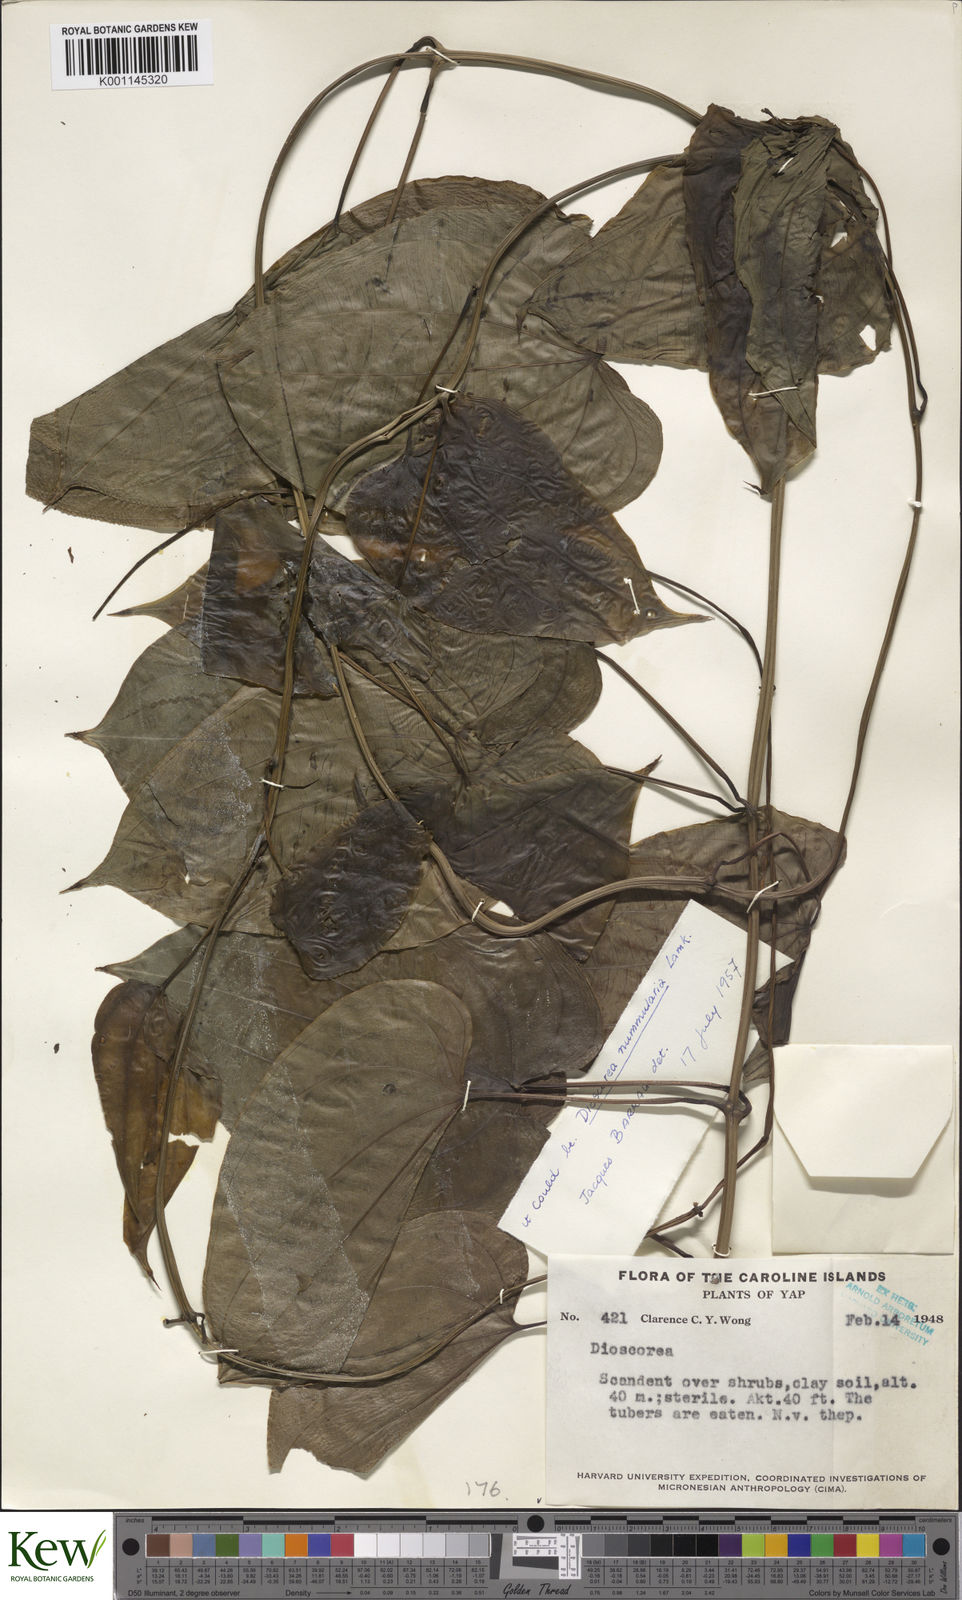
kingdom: Plantae
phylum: Tracheophyta
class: Liliopsida
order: Dioscoreales
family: Dioscoreaceae
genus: Dioscorea
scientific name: Dioscorea
